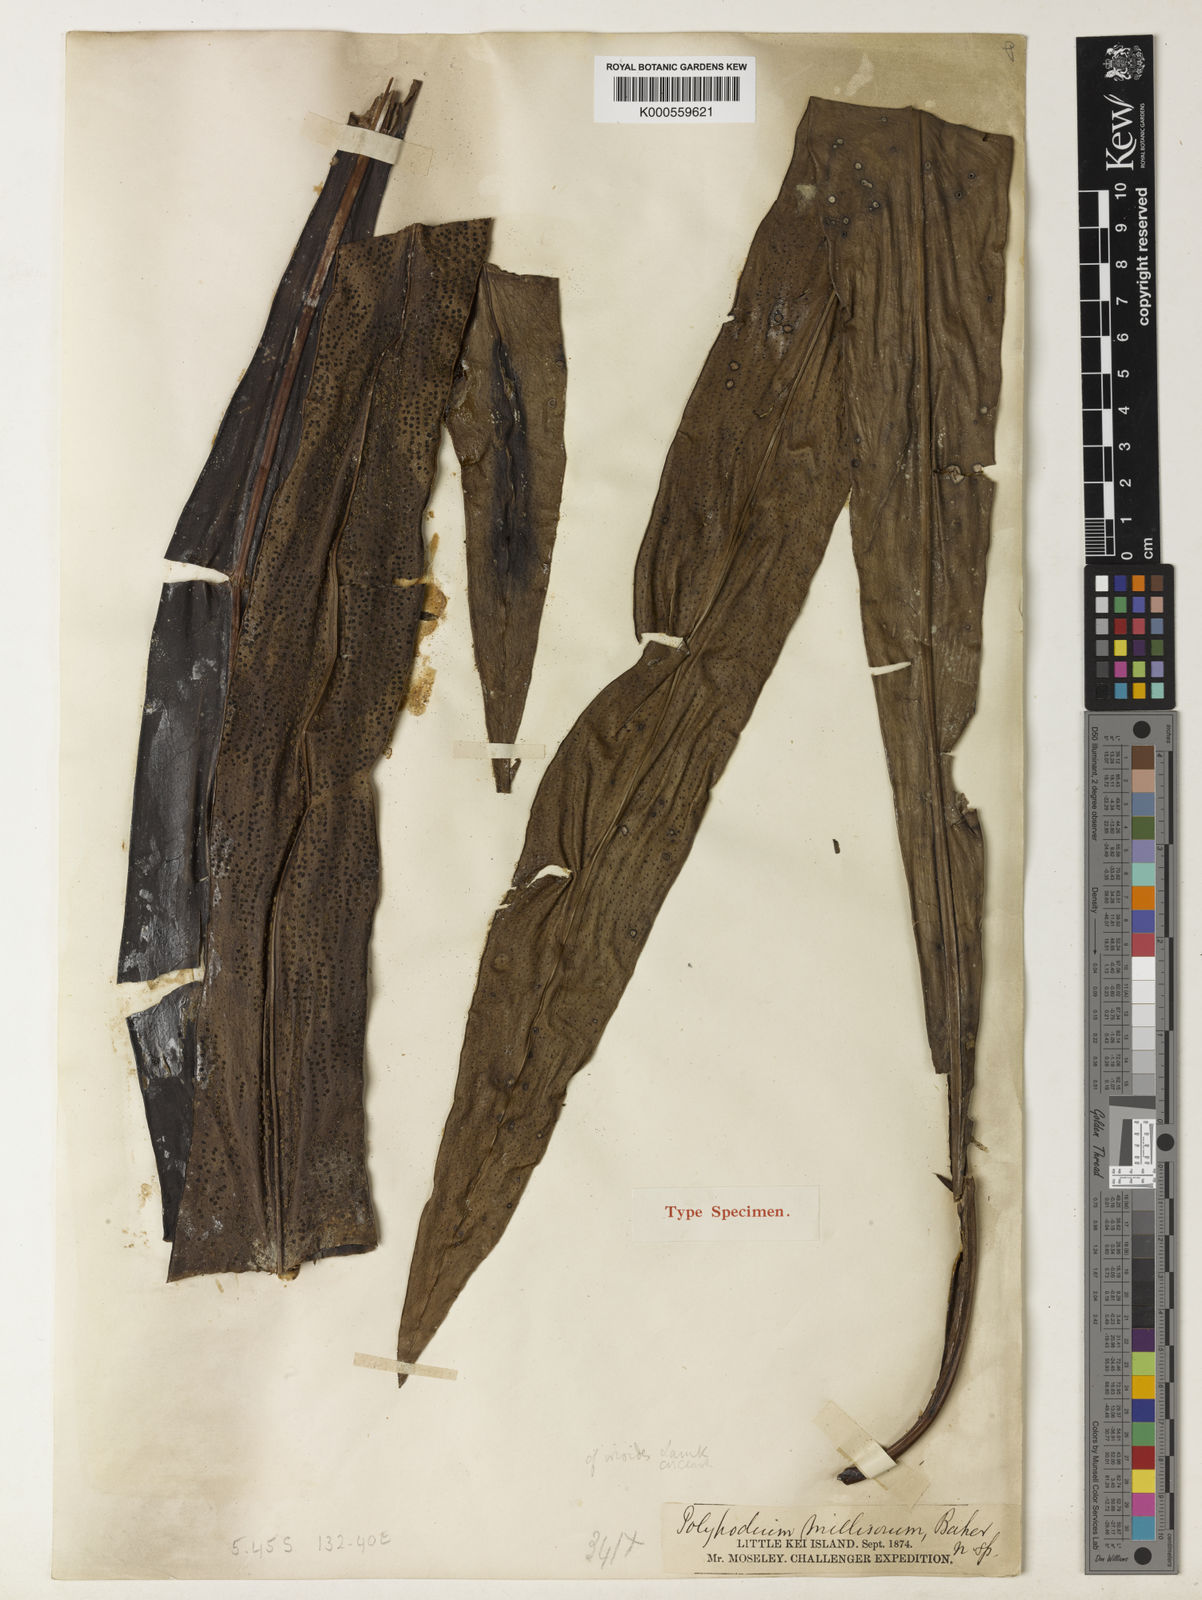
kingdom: Plantae
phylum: Tracheophyta
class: Polypodiopsida
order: Polypodiales
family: Polypodiaceae
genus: Microsorum
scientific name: Microsorum punctatum
